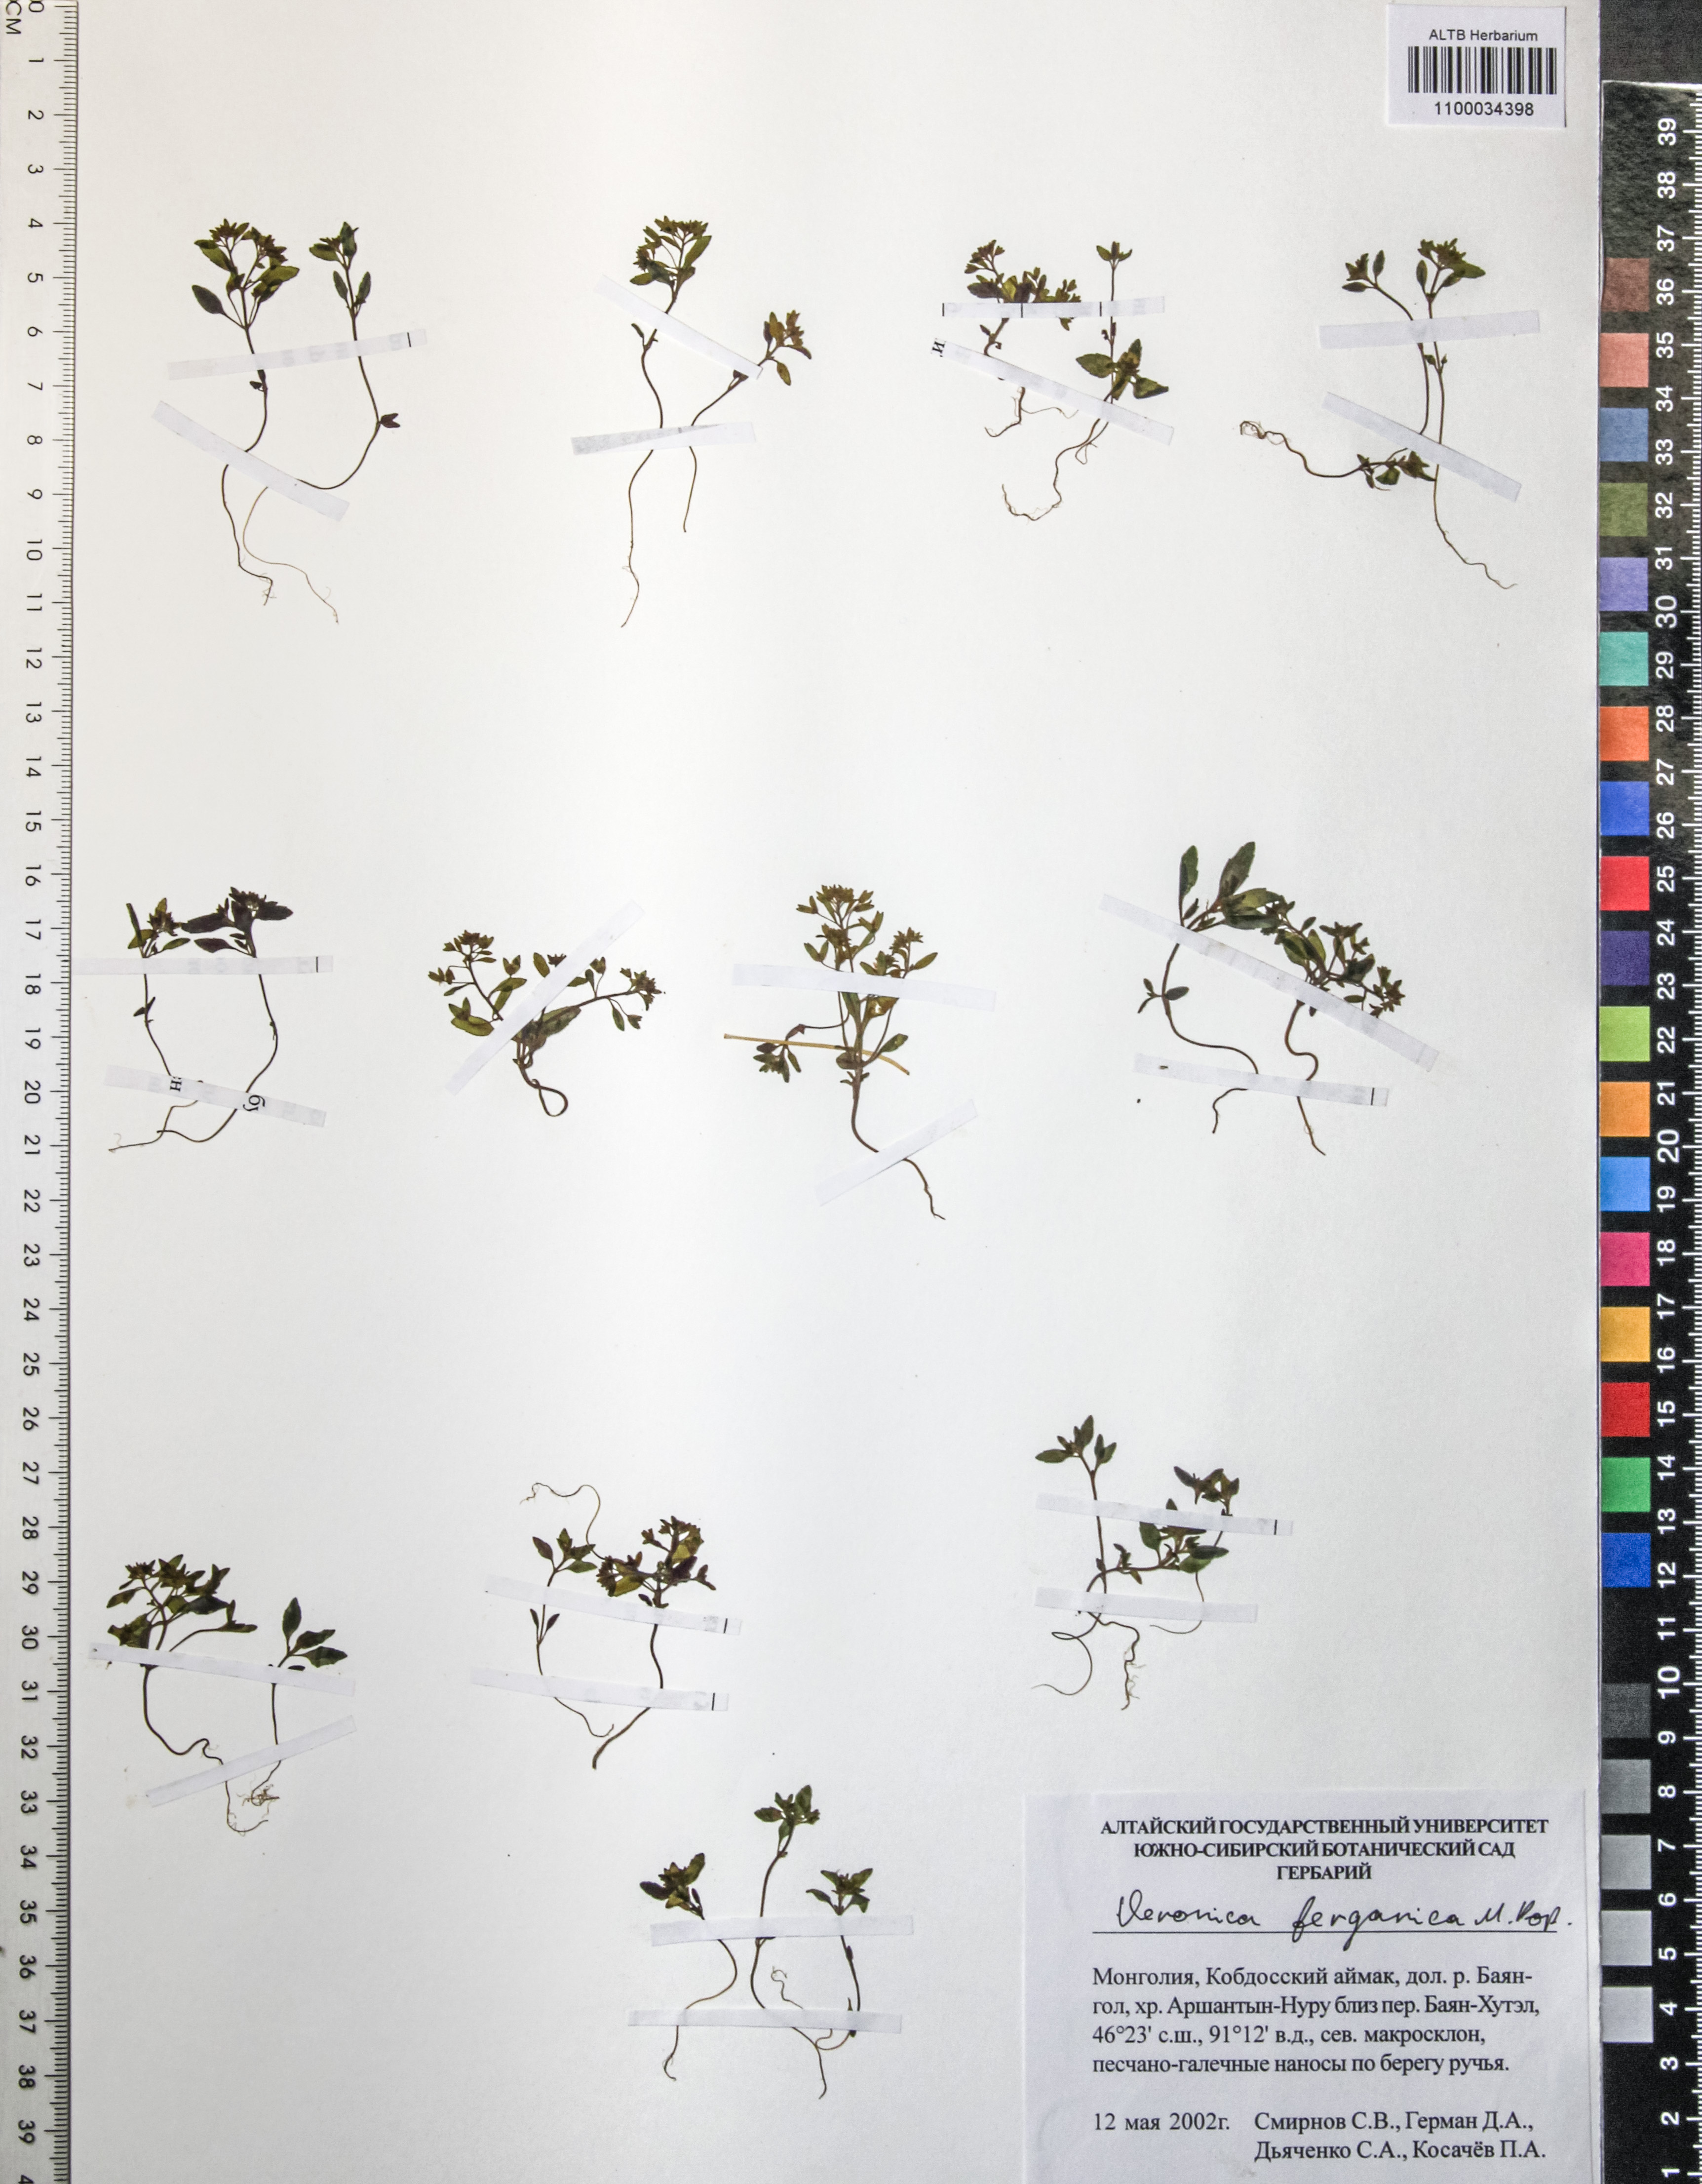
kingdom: Plantae
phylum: Tracheophyta
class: Magnoliopsida
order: Lamiales
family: Plantaginaceae
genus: Veronica
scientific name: Veronica ferganica
